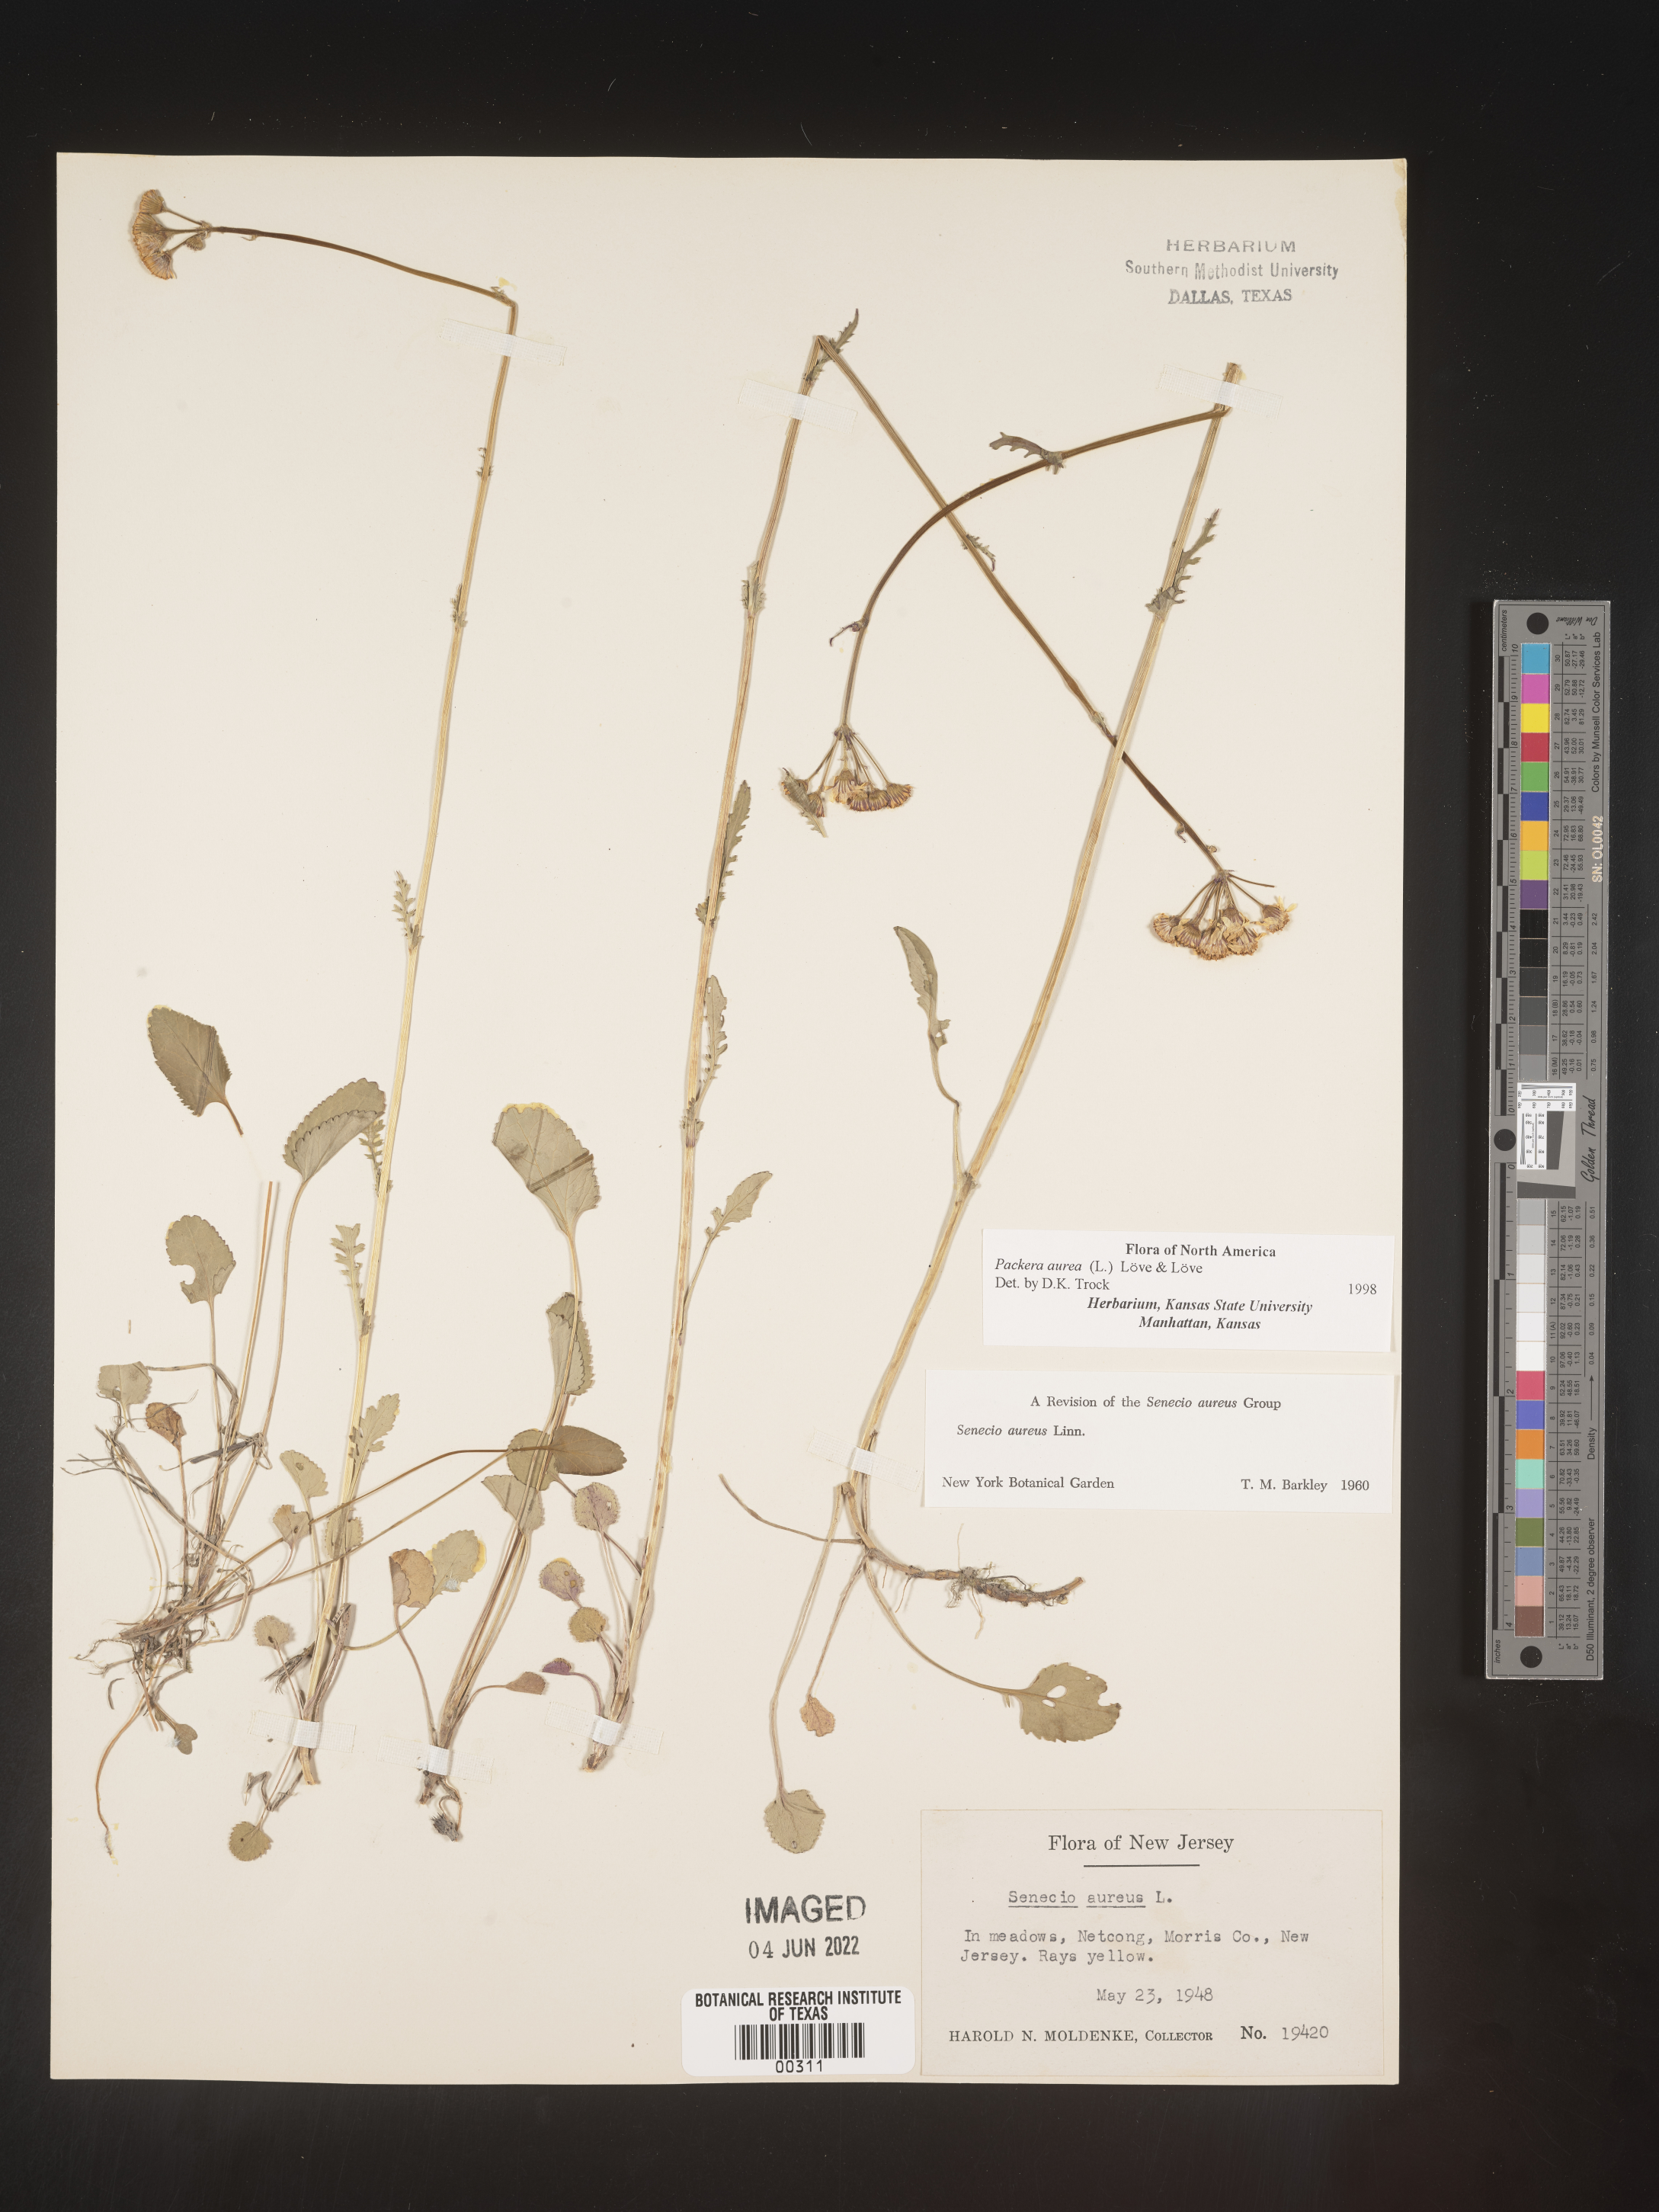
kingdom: Plantae
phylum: Tracheophyta
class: Magnoliopsida
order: Asterales
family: Asteraceae
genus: Packera
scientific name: Packera aurea
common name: Golden groundsel
